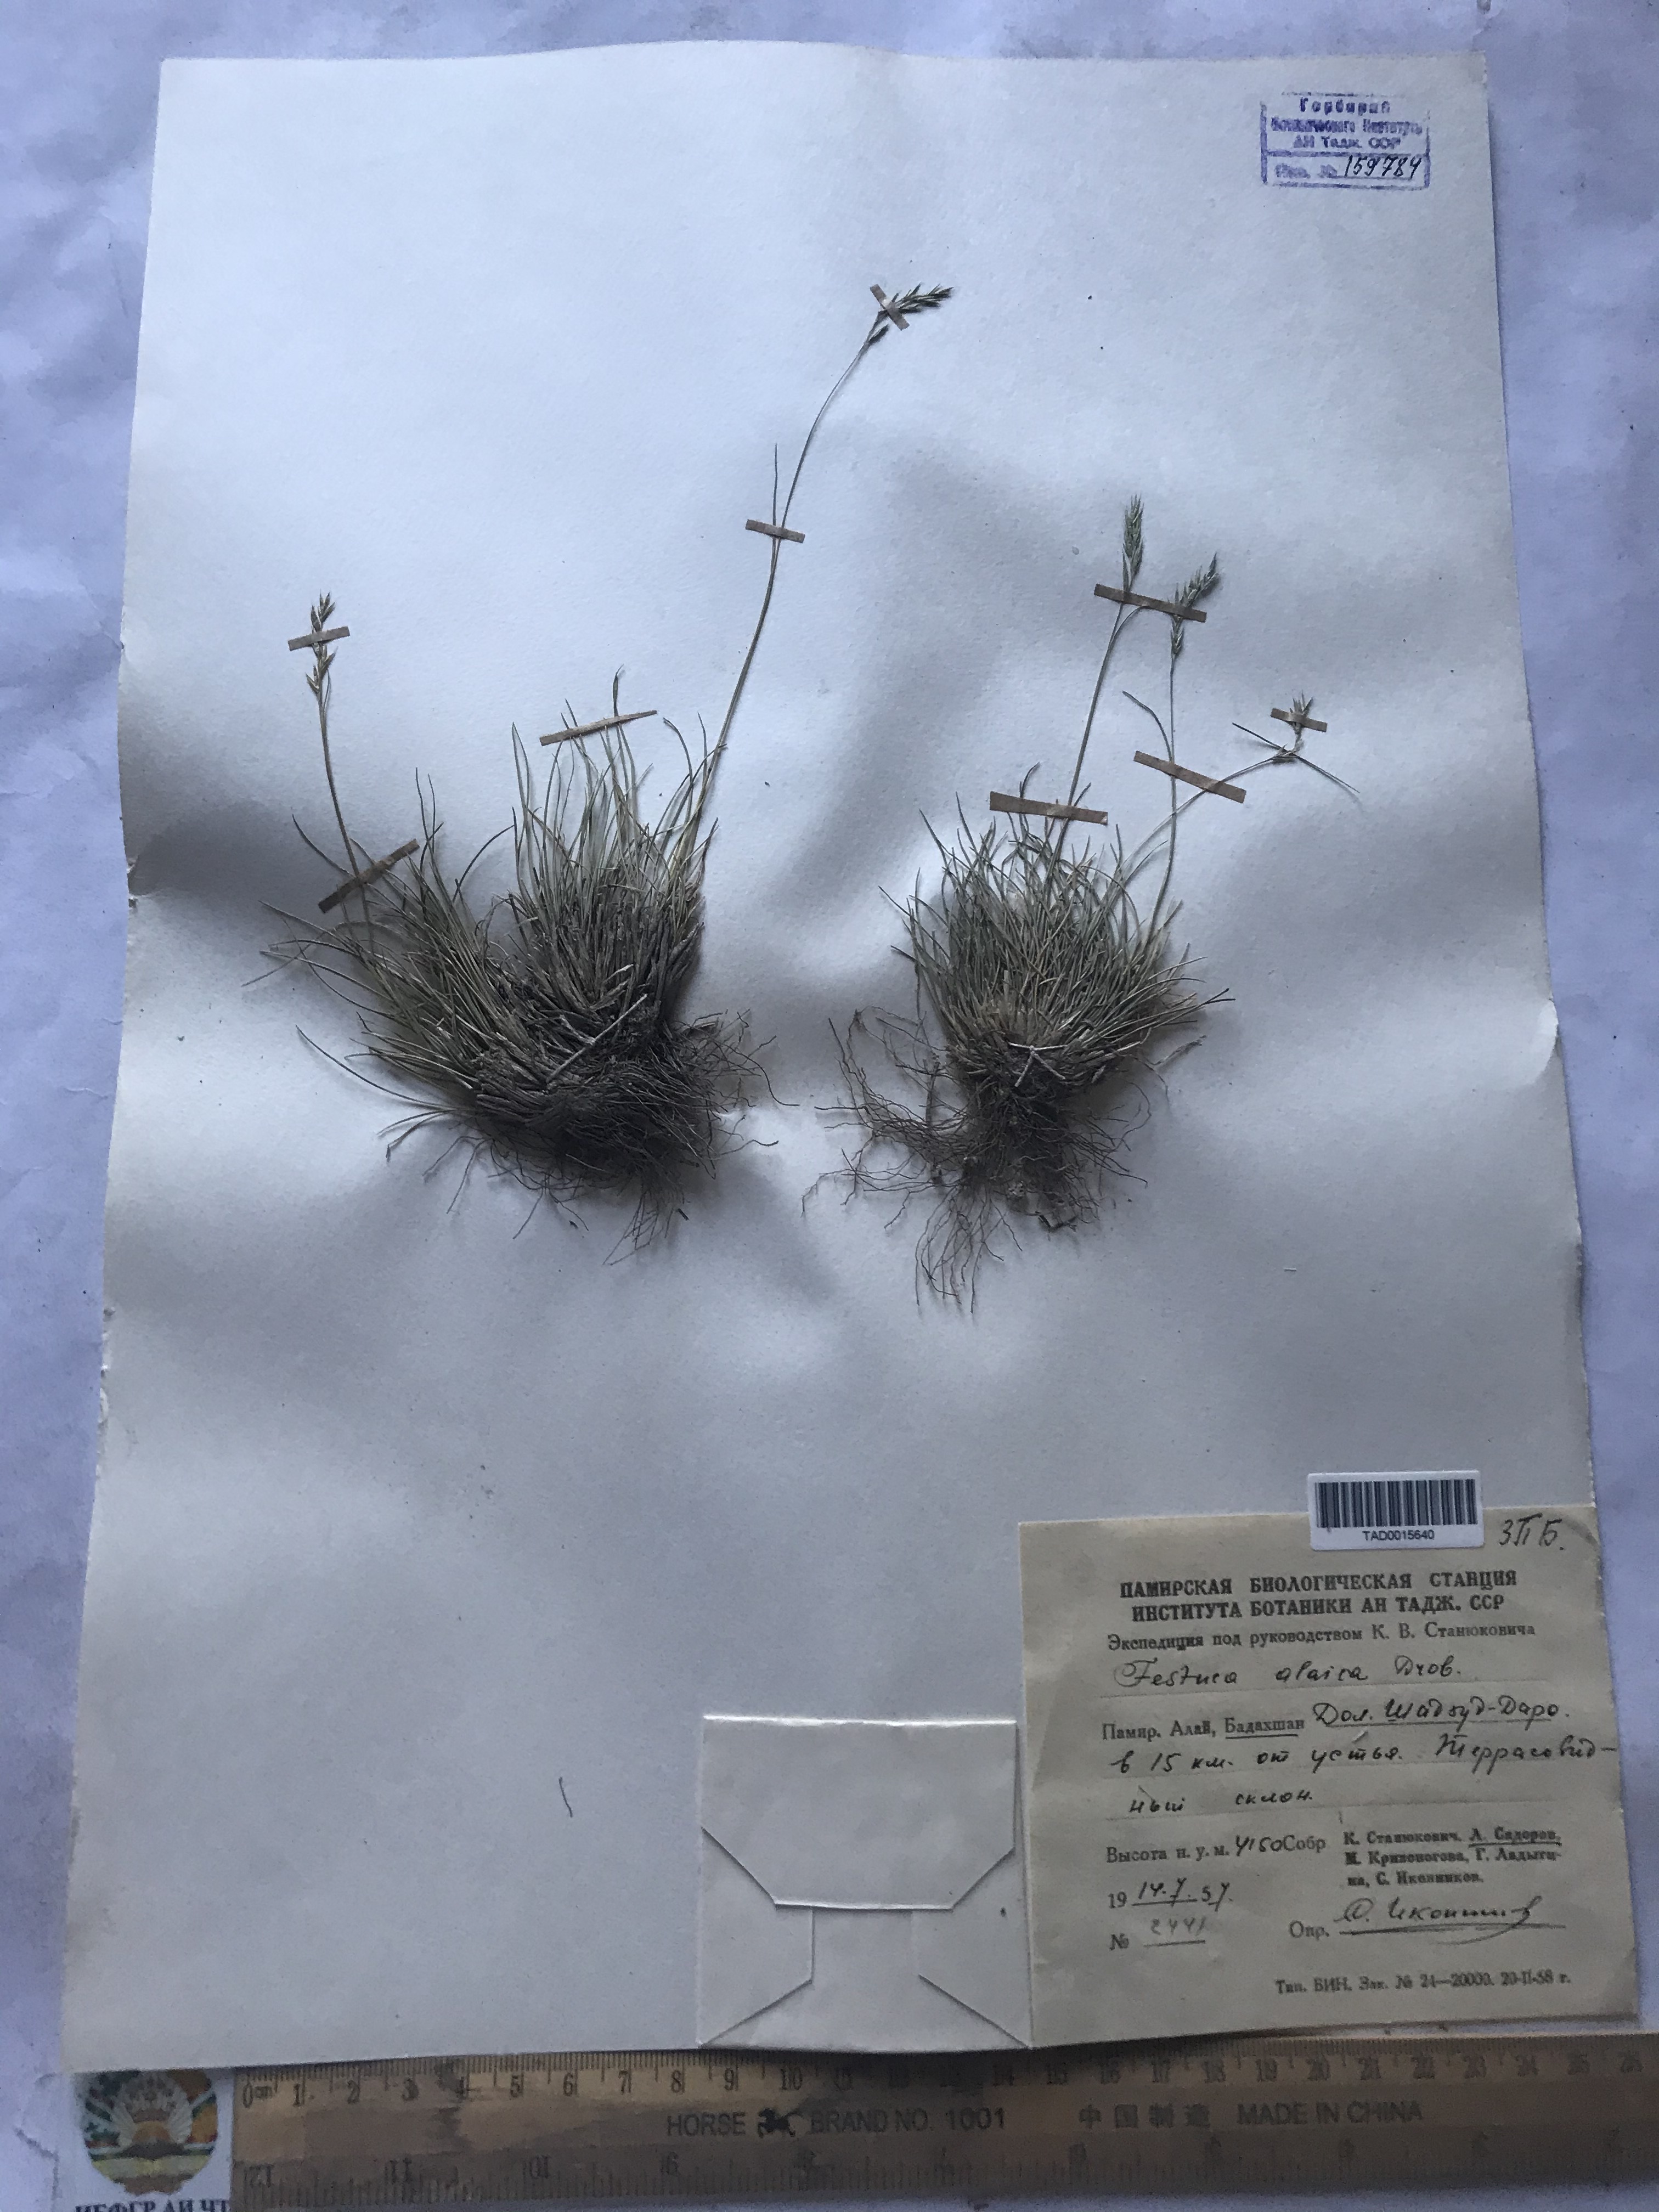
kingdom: Plantae
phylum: Tracheophyta
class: Liliopsida
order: Poales
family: Poaceae
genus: Festuca
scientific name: Festuca alaica
